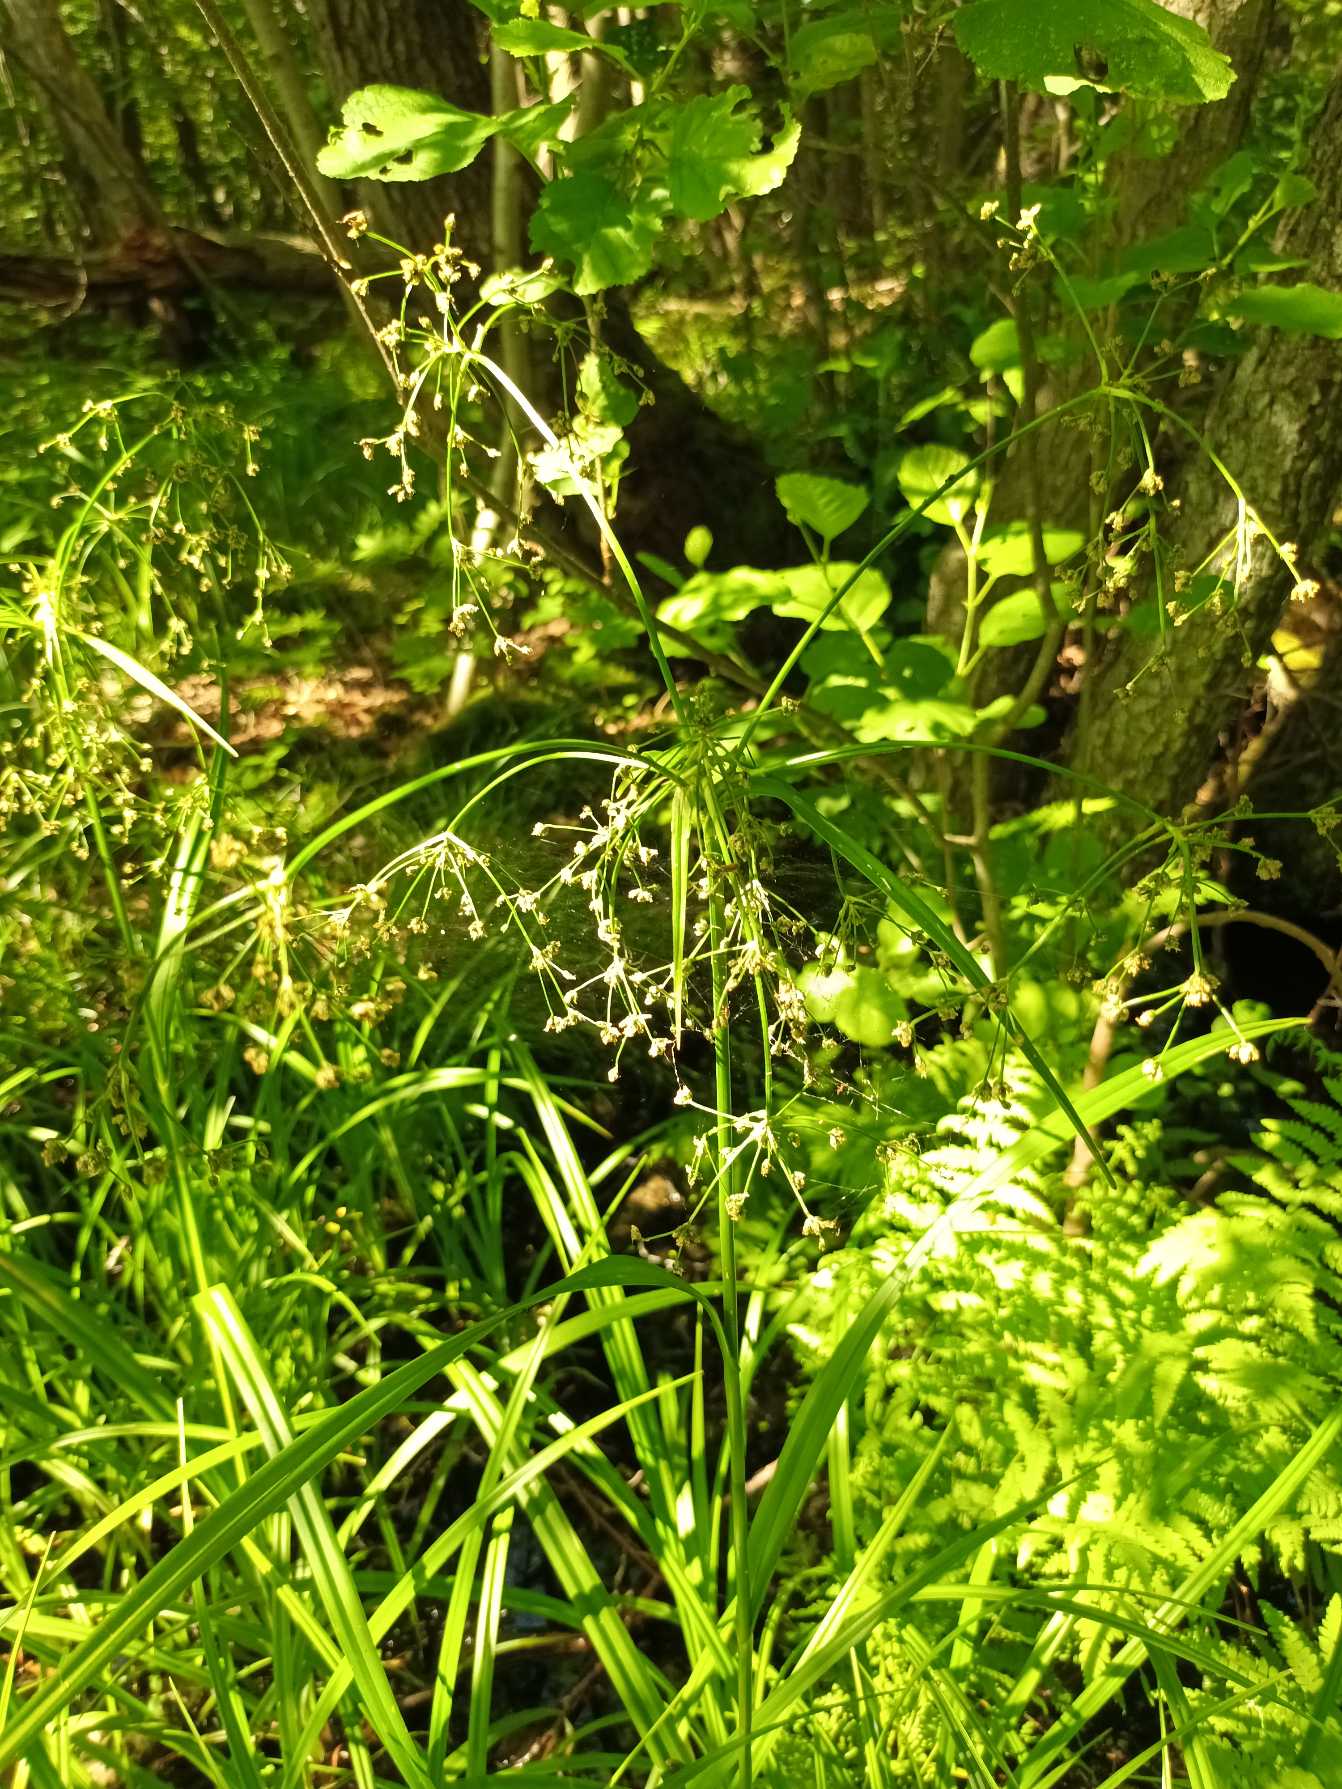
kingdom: Plantae
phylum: Tracheophyta
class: Liliopsida
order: Poales
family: Cyperaceae
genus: Scirpus
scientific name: Scirpus sylvaticus
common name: Skov-kogleaks
